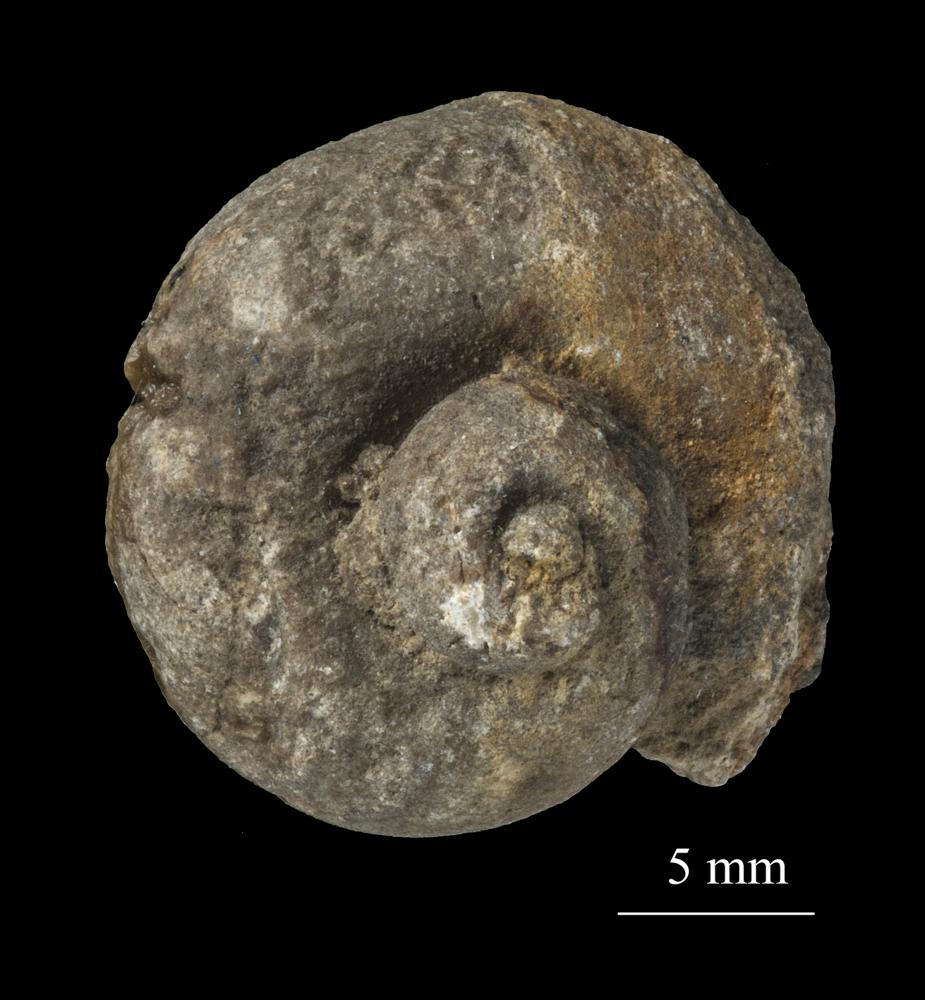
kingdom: Animalia
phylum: Mollusca
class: Gastropoda
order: Trochida
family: Turbinidae
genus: Turbo
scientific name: Turbo
